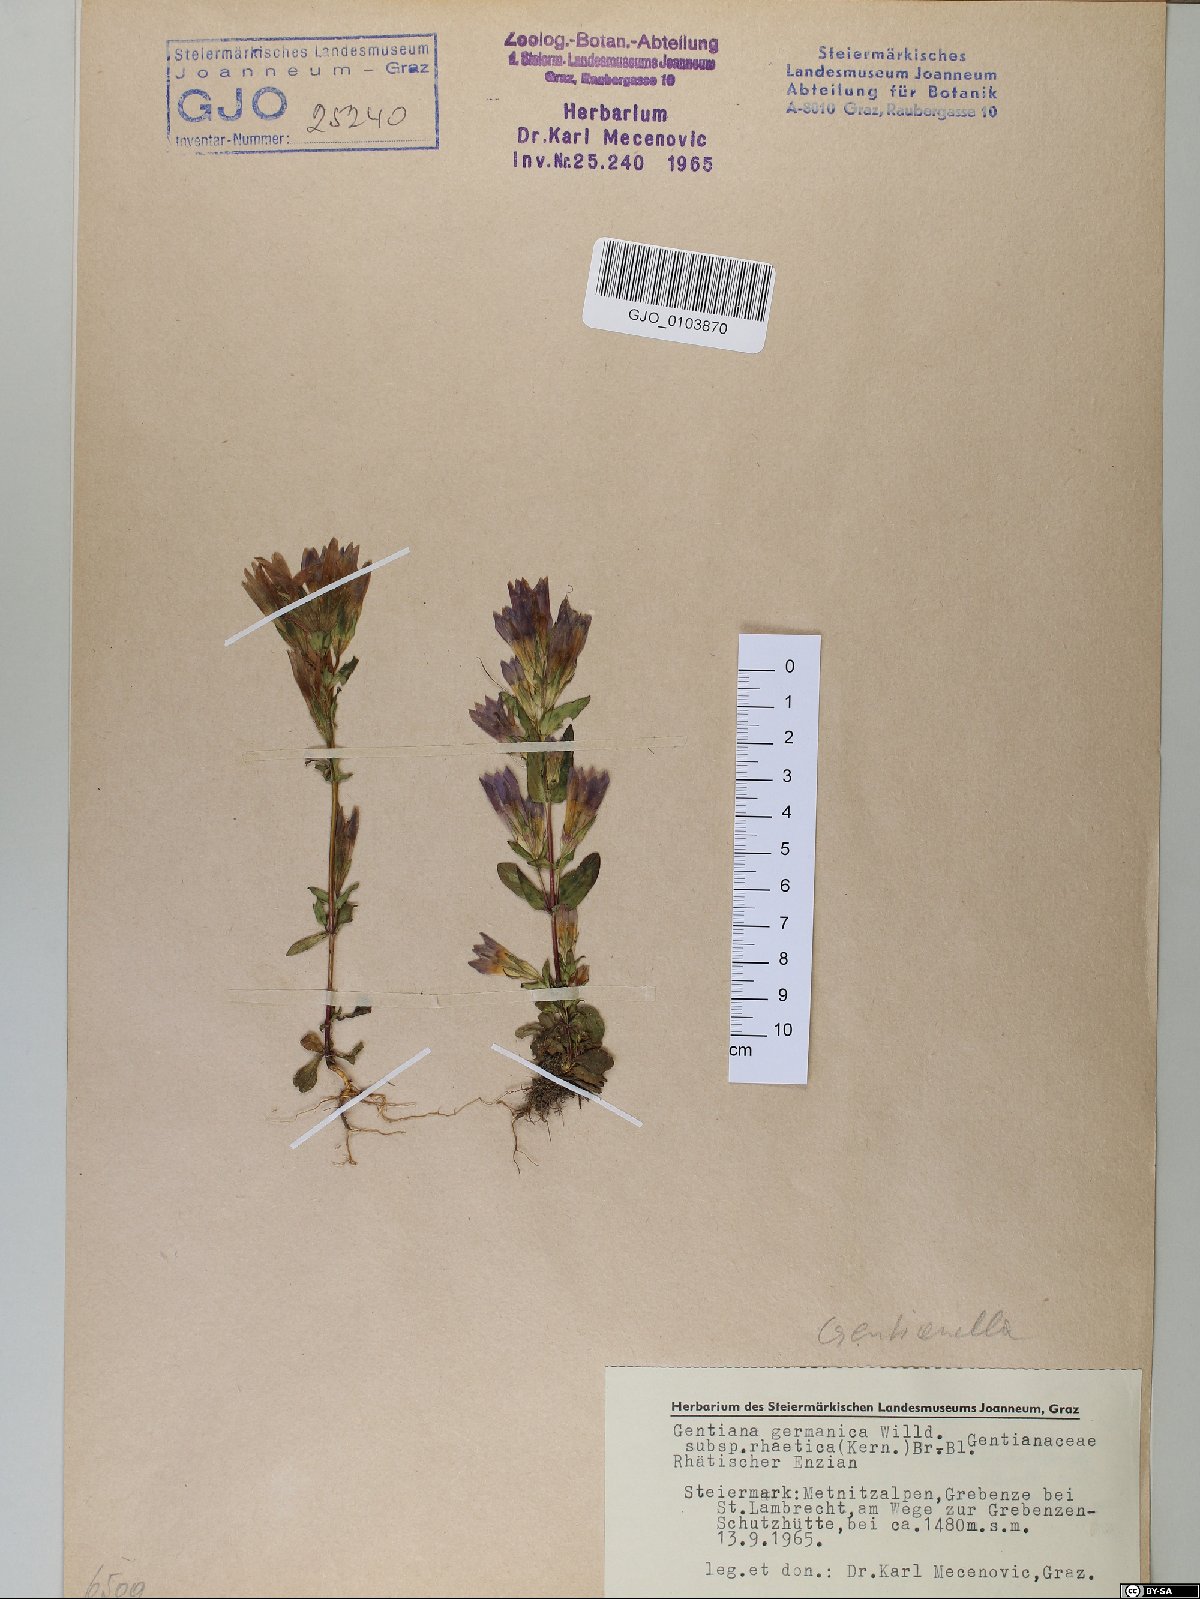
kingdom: Plantae
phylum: Tracheophyta
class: Magnoliopsida
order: Gentianales
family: Gentianaceae
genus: Gentianella
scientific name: Gentianella rhaetica
